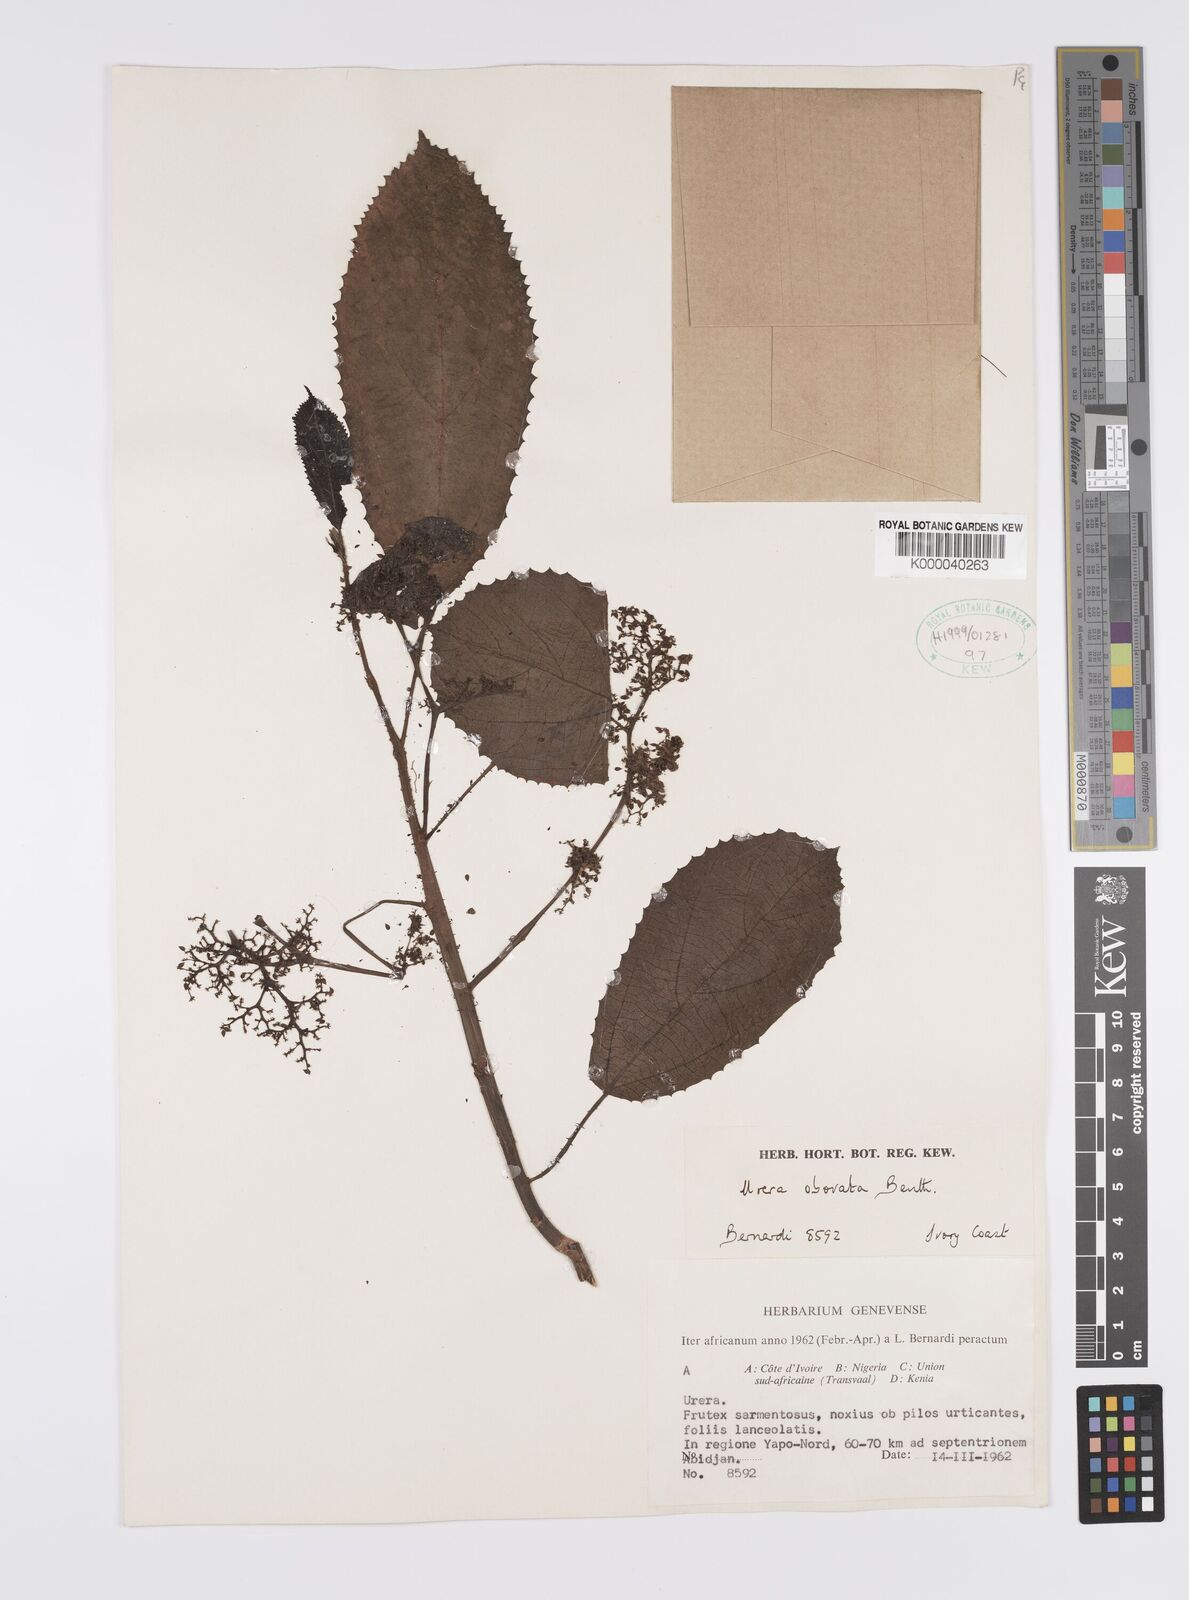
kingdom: Plantae
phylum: Tracheophyta
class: Magnoliopsida
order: Rosales
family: Urticaceae
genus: Scepocarpus
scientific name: Scepocarpus obovatus
